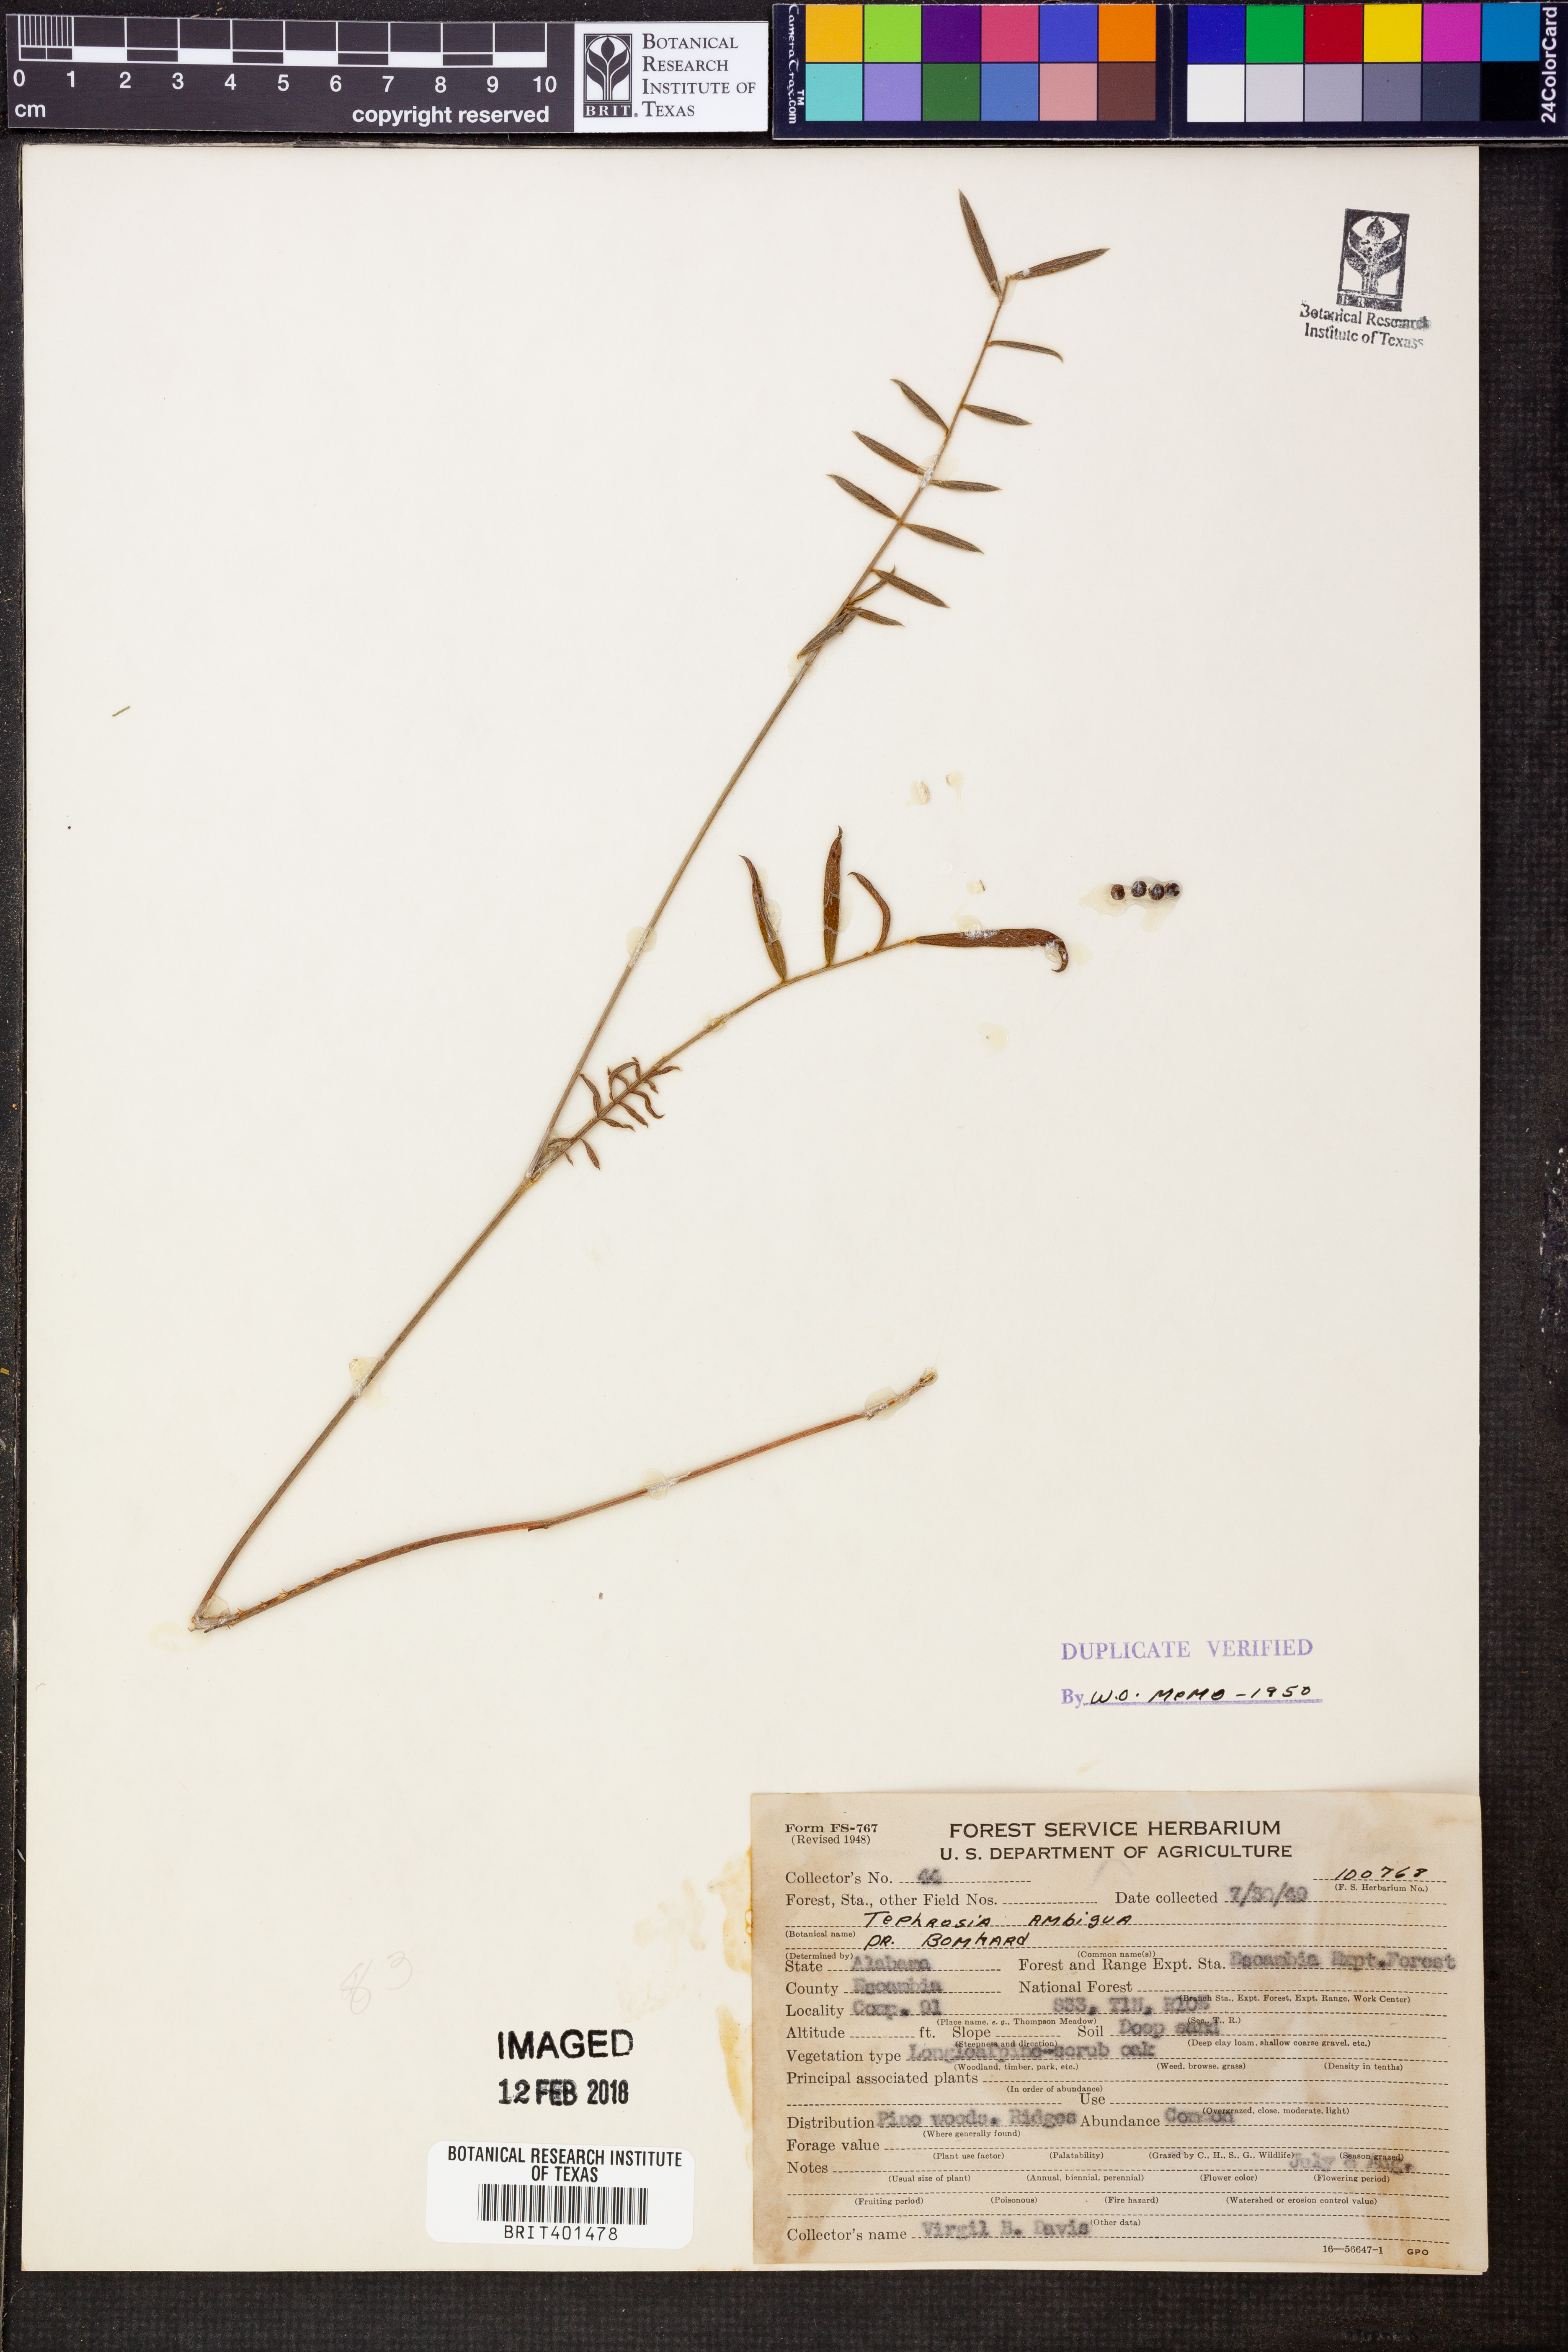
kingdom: Plantae
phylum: Tracheophyta
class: Magnoliopsida
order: Fabales
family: Fabaceae
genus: Tephrosia
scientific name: Tephrosia florida
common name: Florida hoary-pea
